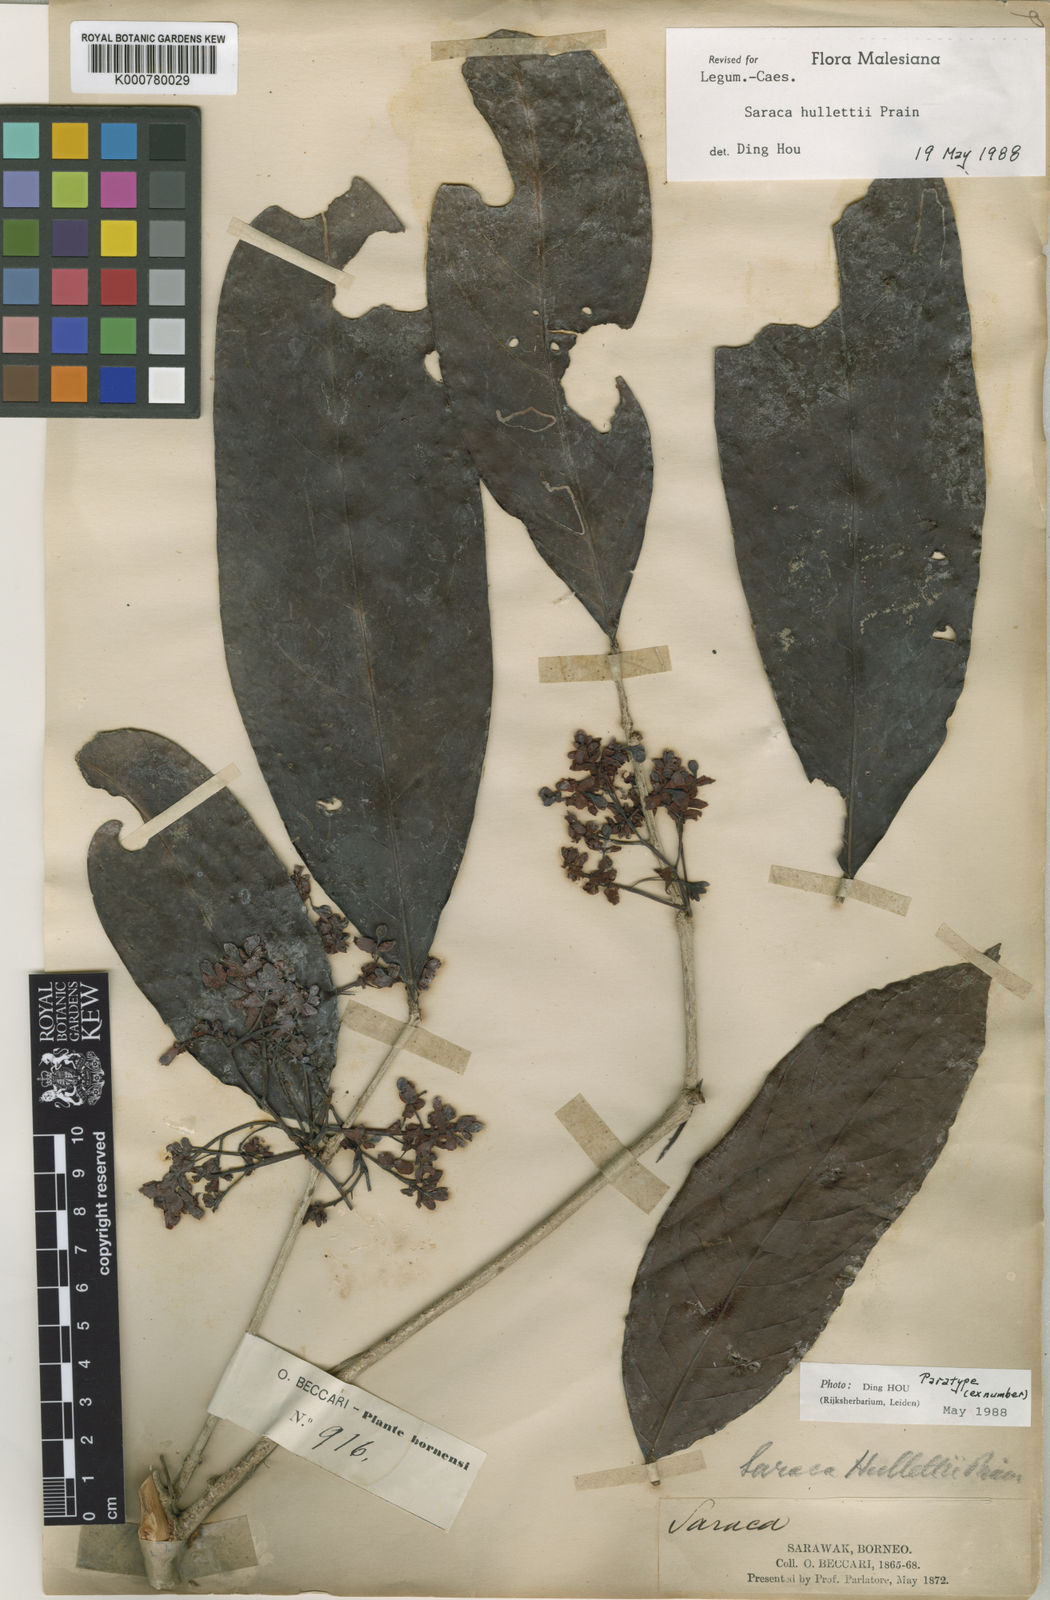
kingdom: Plantae
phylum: Tracheophyta
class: Magnoliopsida
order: Fabales
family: Fabaceae
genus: Saraca
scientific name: Saraca hullettii
